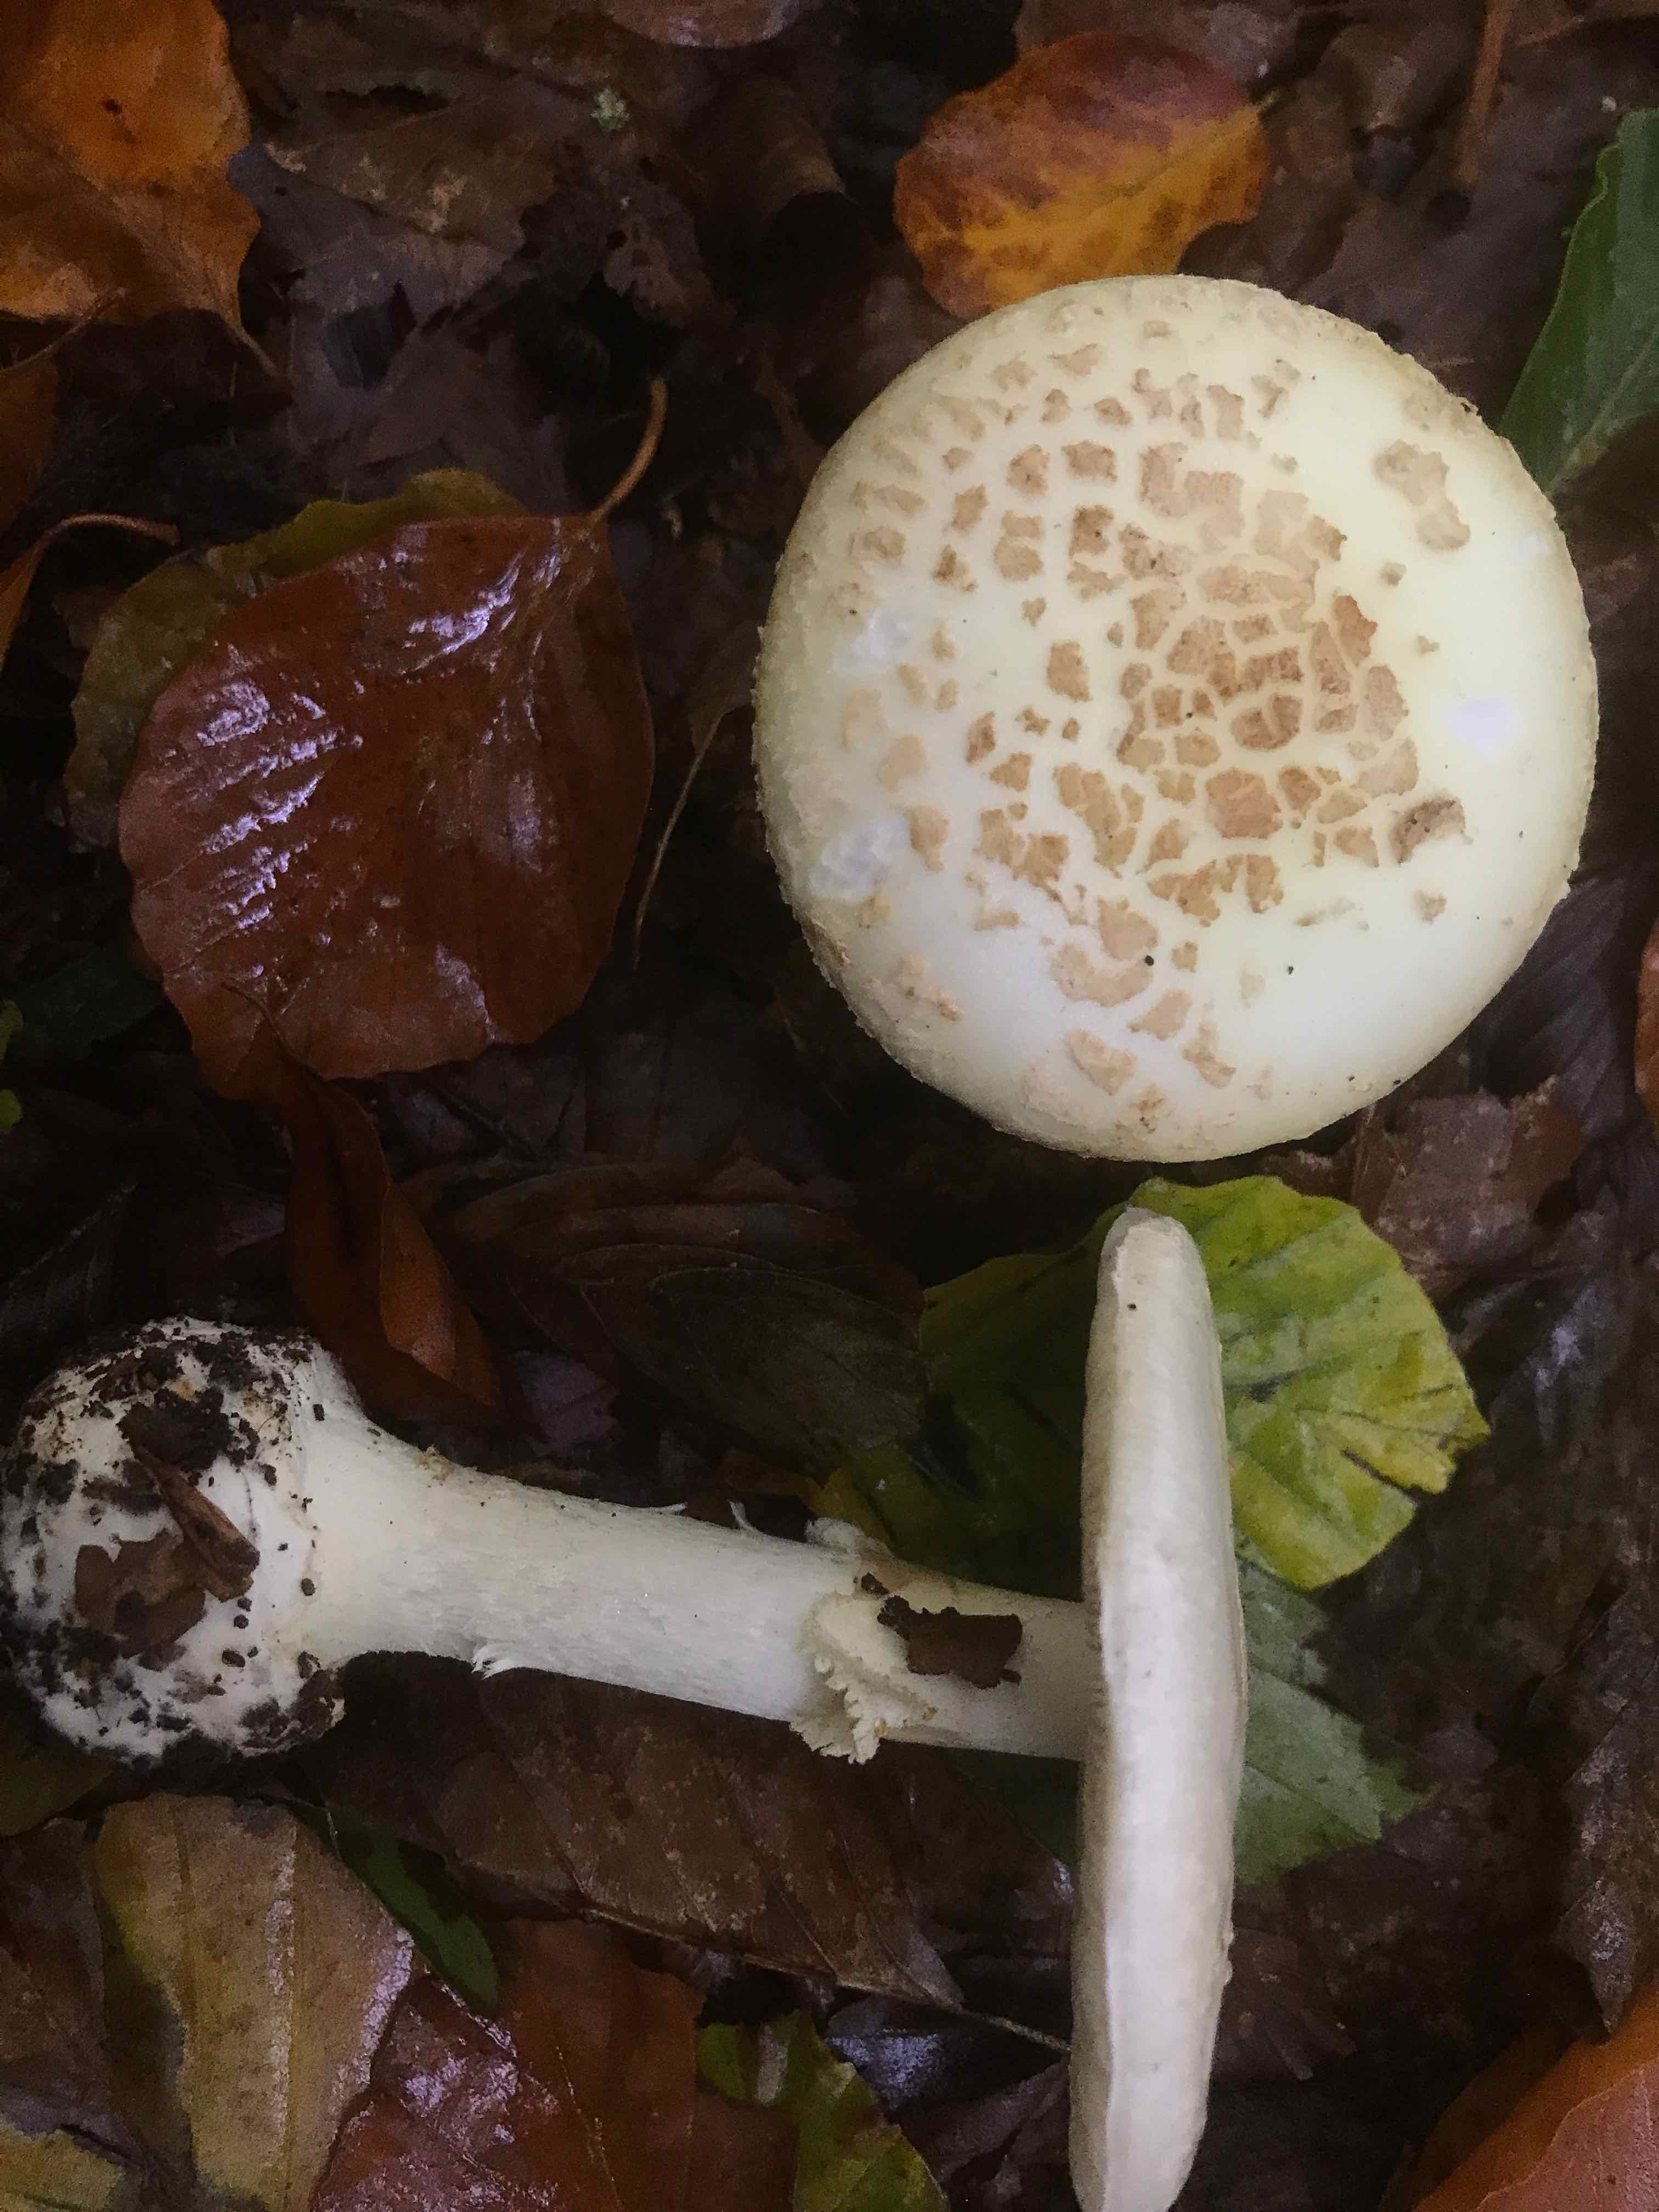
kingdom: Fungi
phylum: Basidiomycota
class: Agaricomycetes
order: Agaricales
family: Amanitaceae
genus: Amanita
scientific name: Amanita citrina
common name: kugleknoldet fluesvamp
